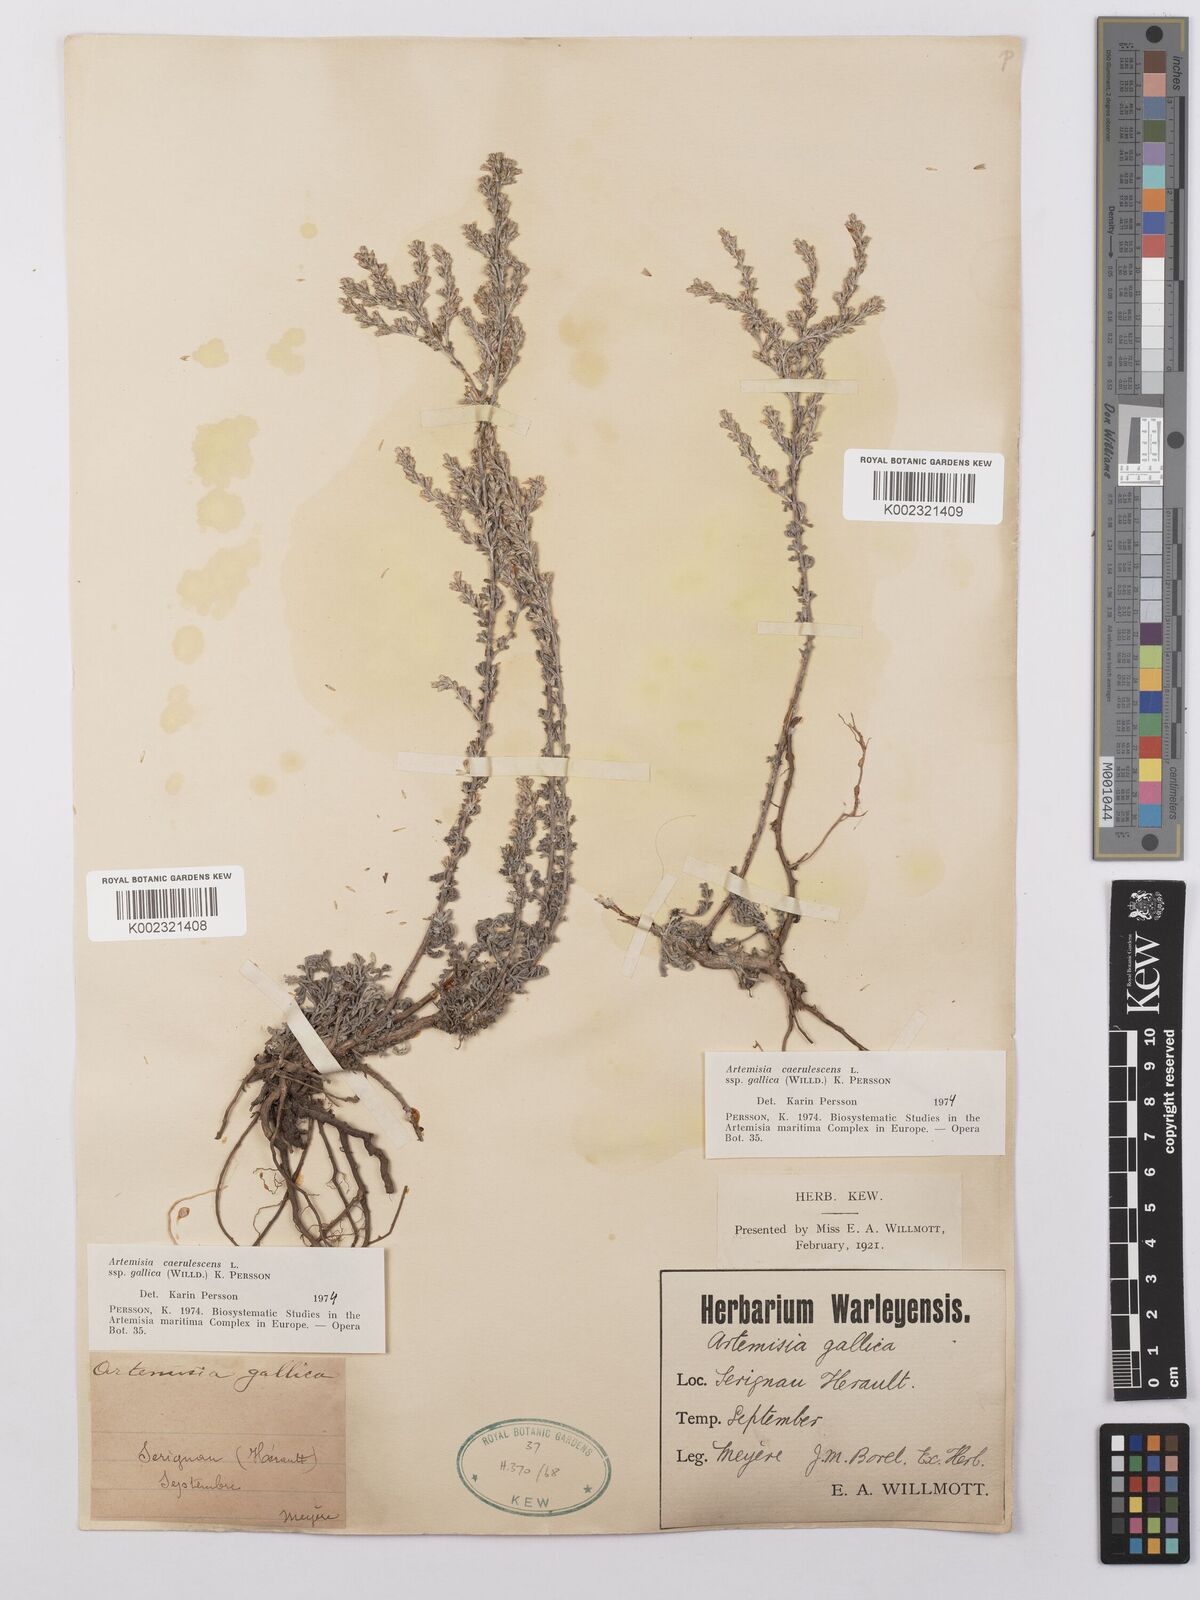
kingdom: Plantae
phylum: Tracheophyta
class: Magnoliopsida
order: Asterales
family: Asteraceae
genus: Artemisia
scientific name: Artemisia caerulescens
